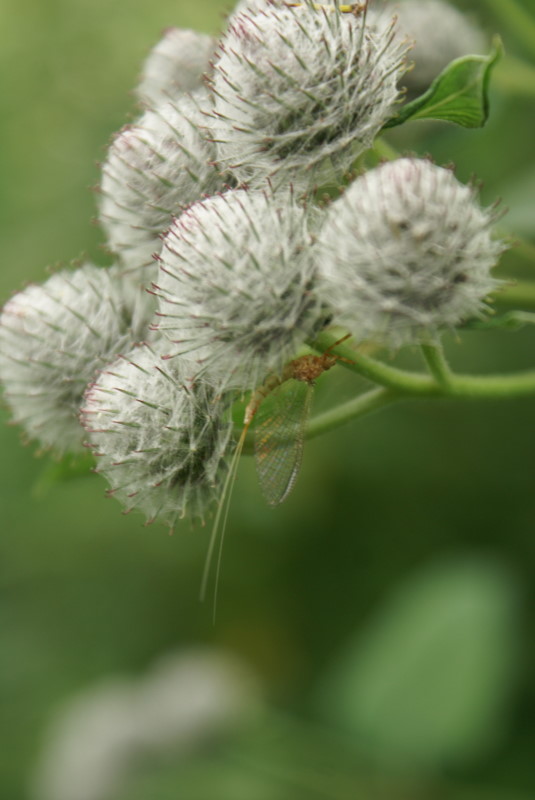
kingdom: Plantae
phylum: Tracheophyta
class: Magnoliopsida
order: Asterales
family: Asteraceae
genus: Arctium
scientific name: Arctium tomentosum
